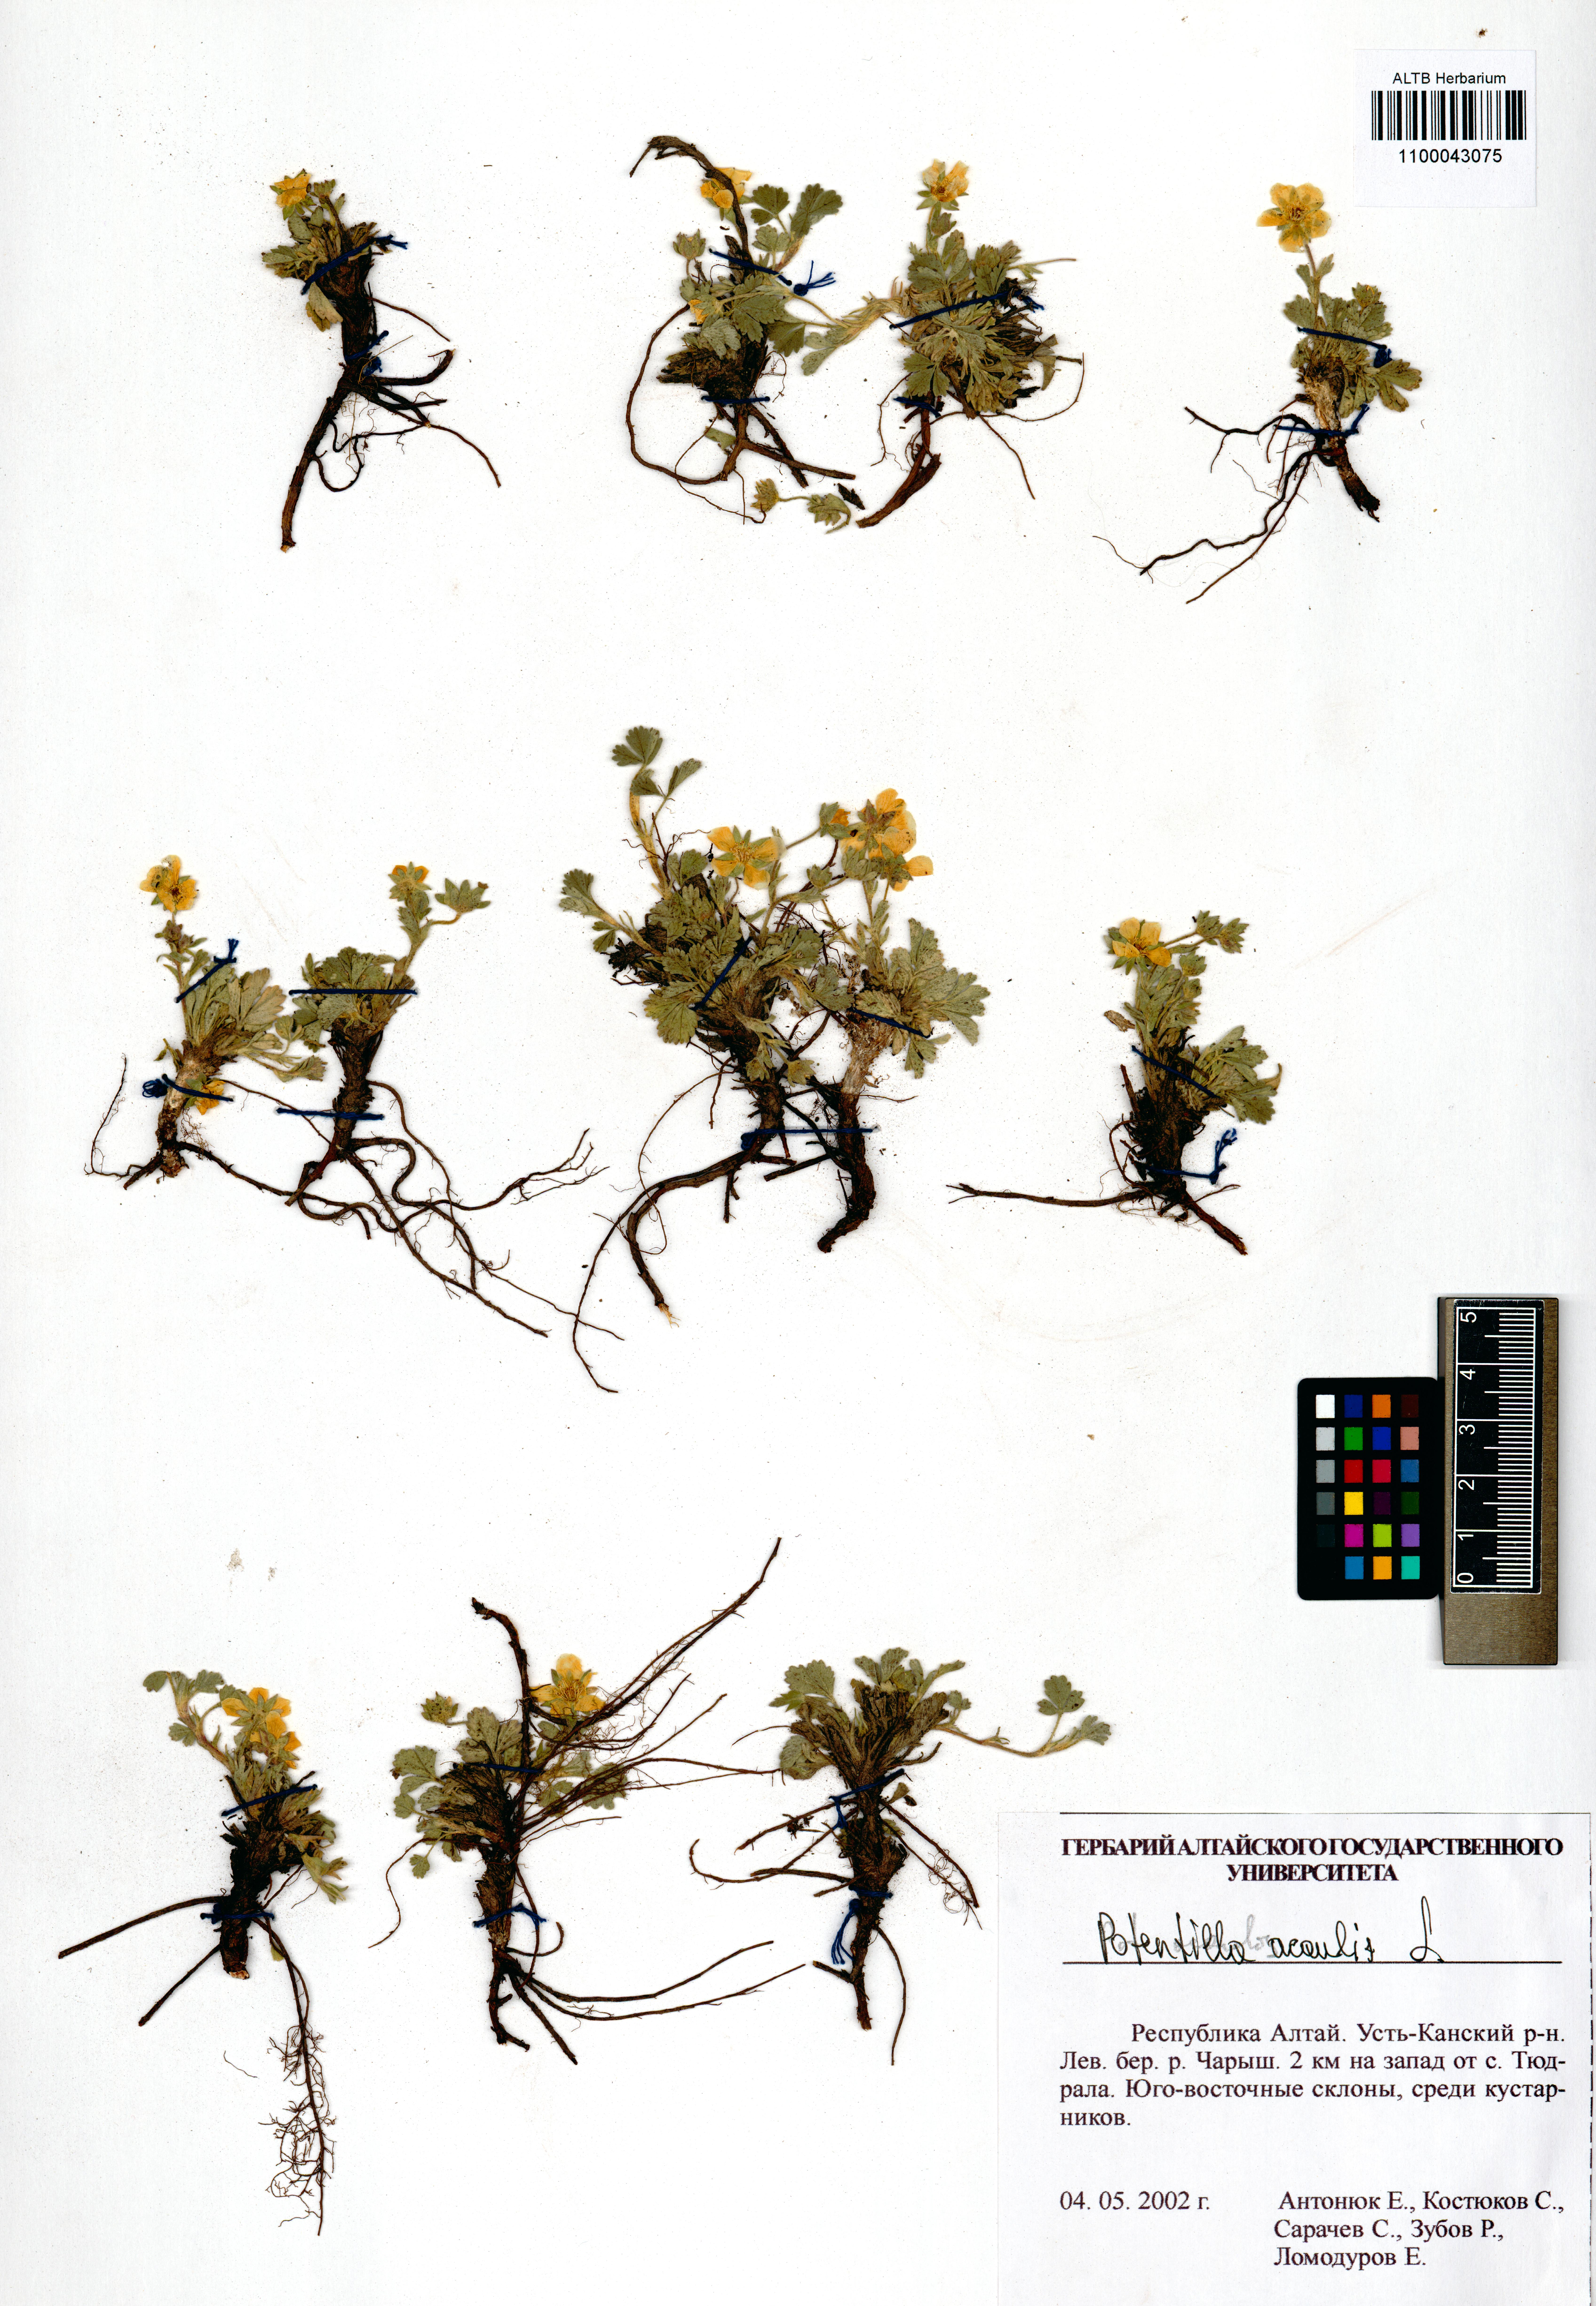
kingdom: Plantae
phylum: Tracheophyta
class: Magnoliopsida
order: Rosales
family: Rosaceae
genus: Potentilla
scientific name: Potentilla acaulis
